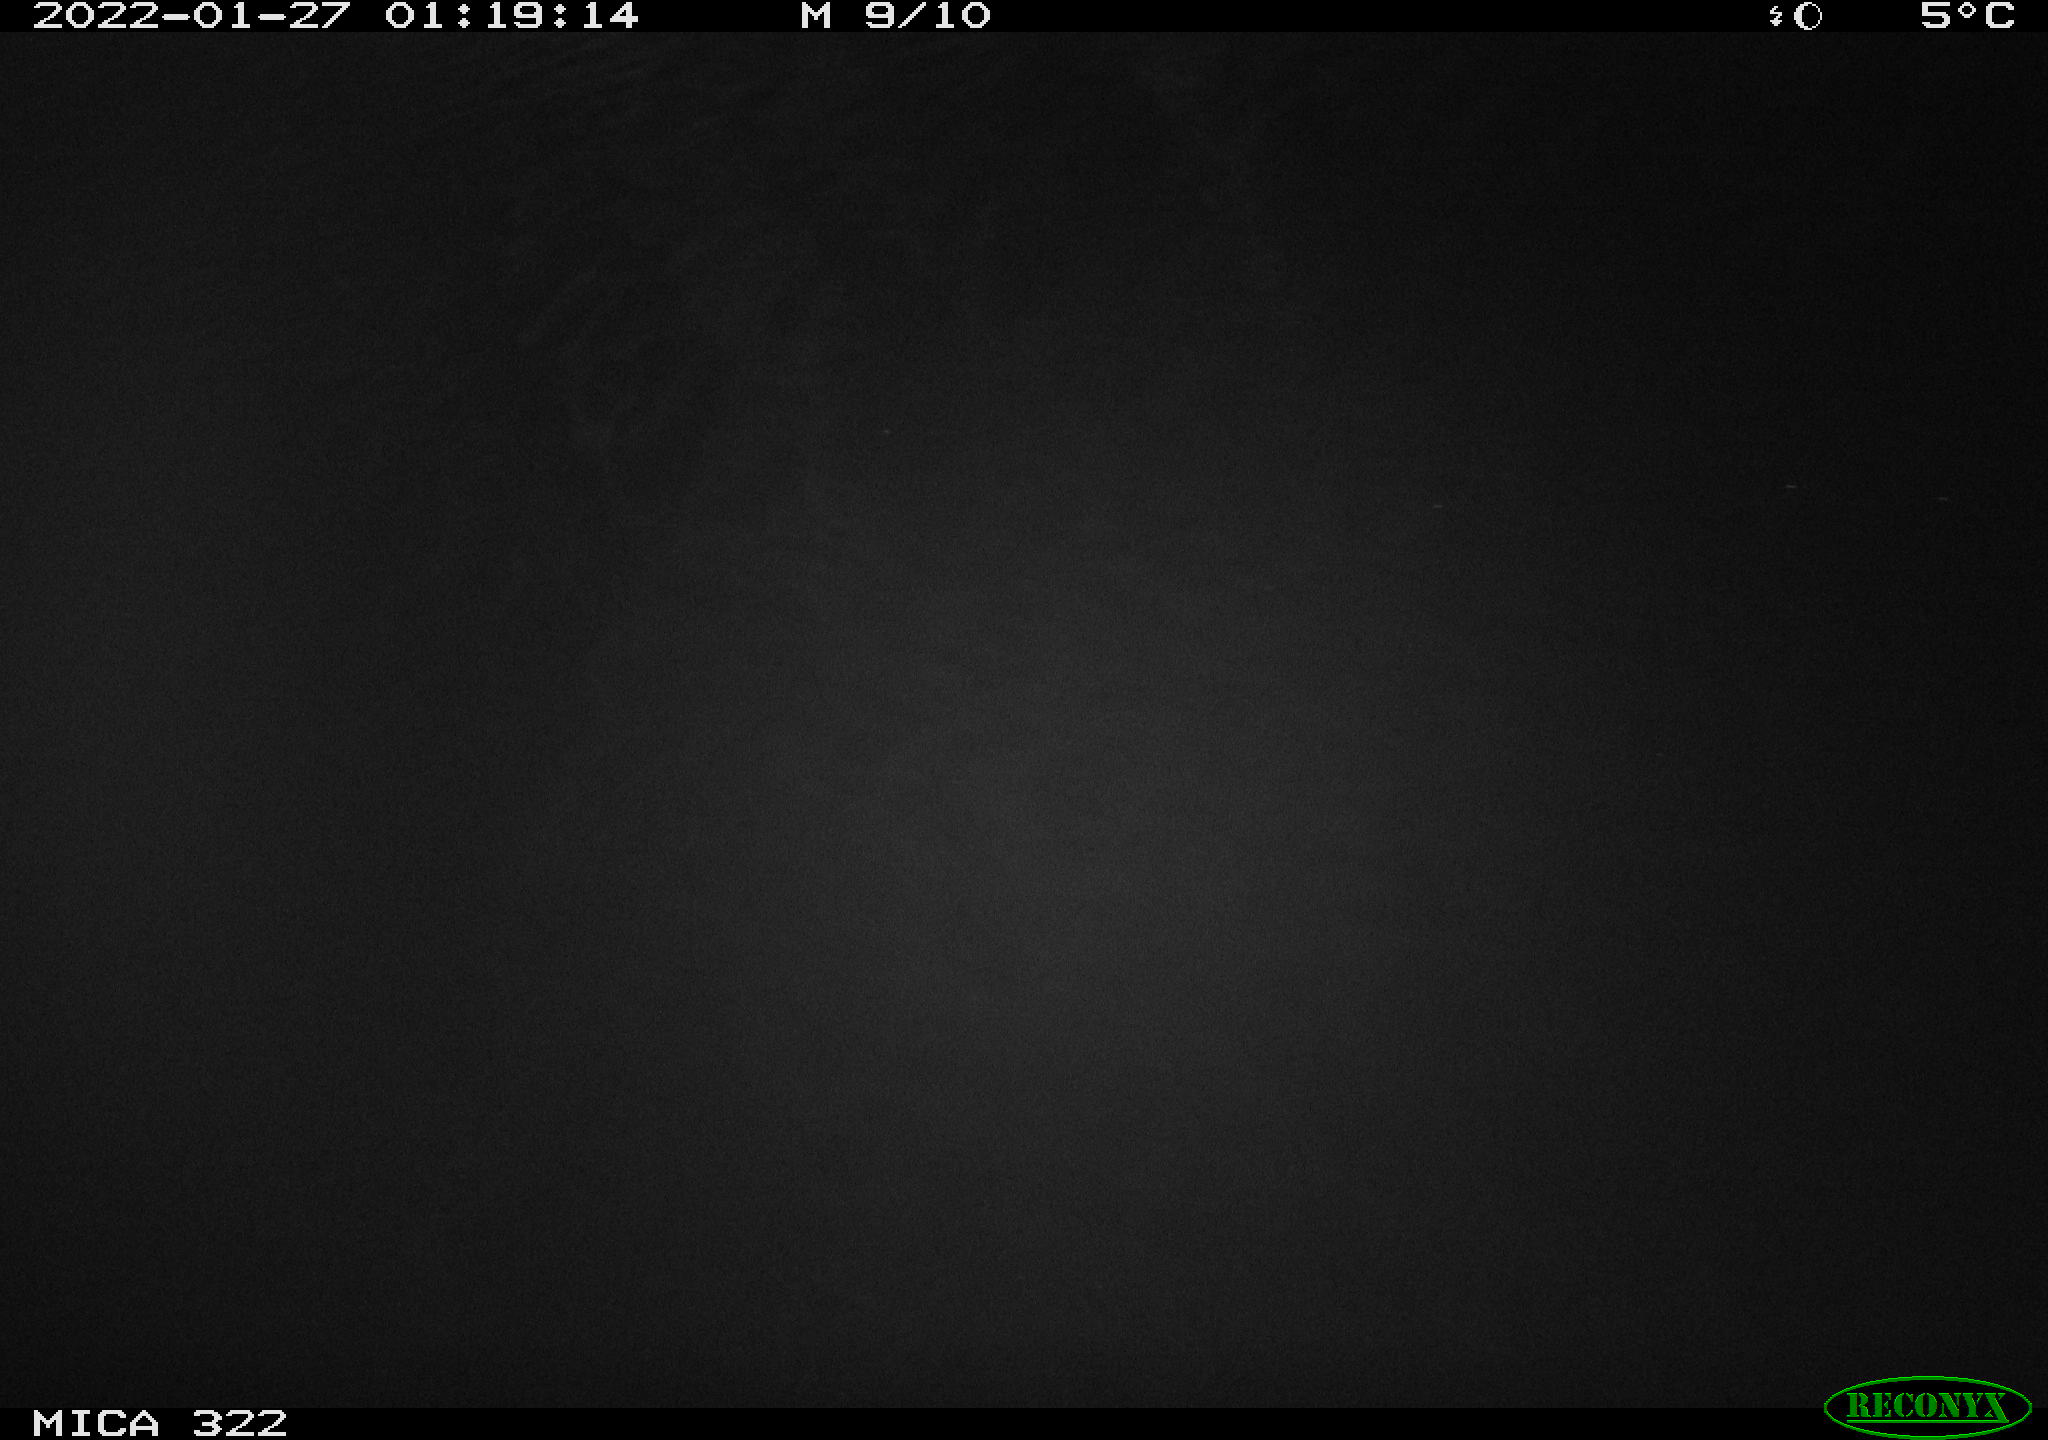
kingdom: Animalia
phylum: Chordata
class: Mammalia
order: Rodentia
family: Muridae
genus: Rattus
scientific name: Rattus norvegicus
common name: Brown rat
